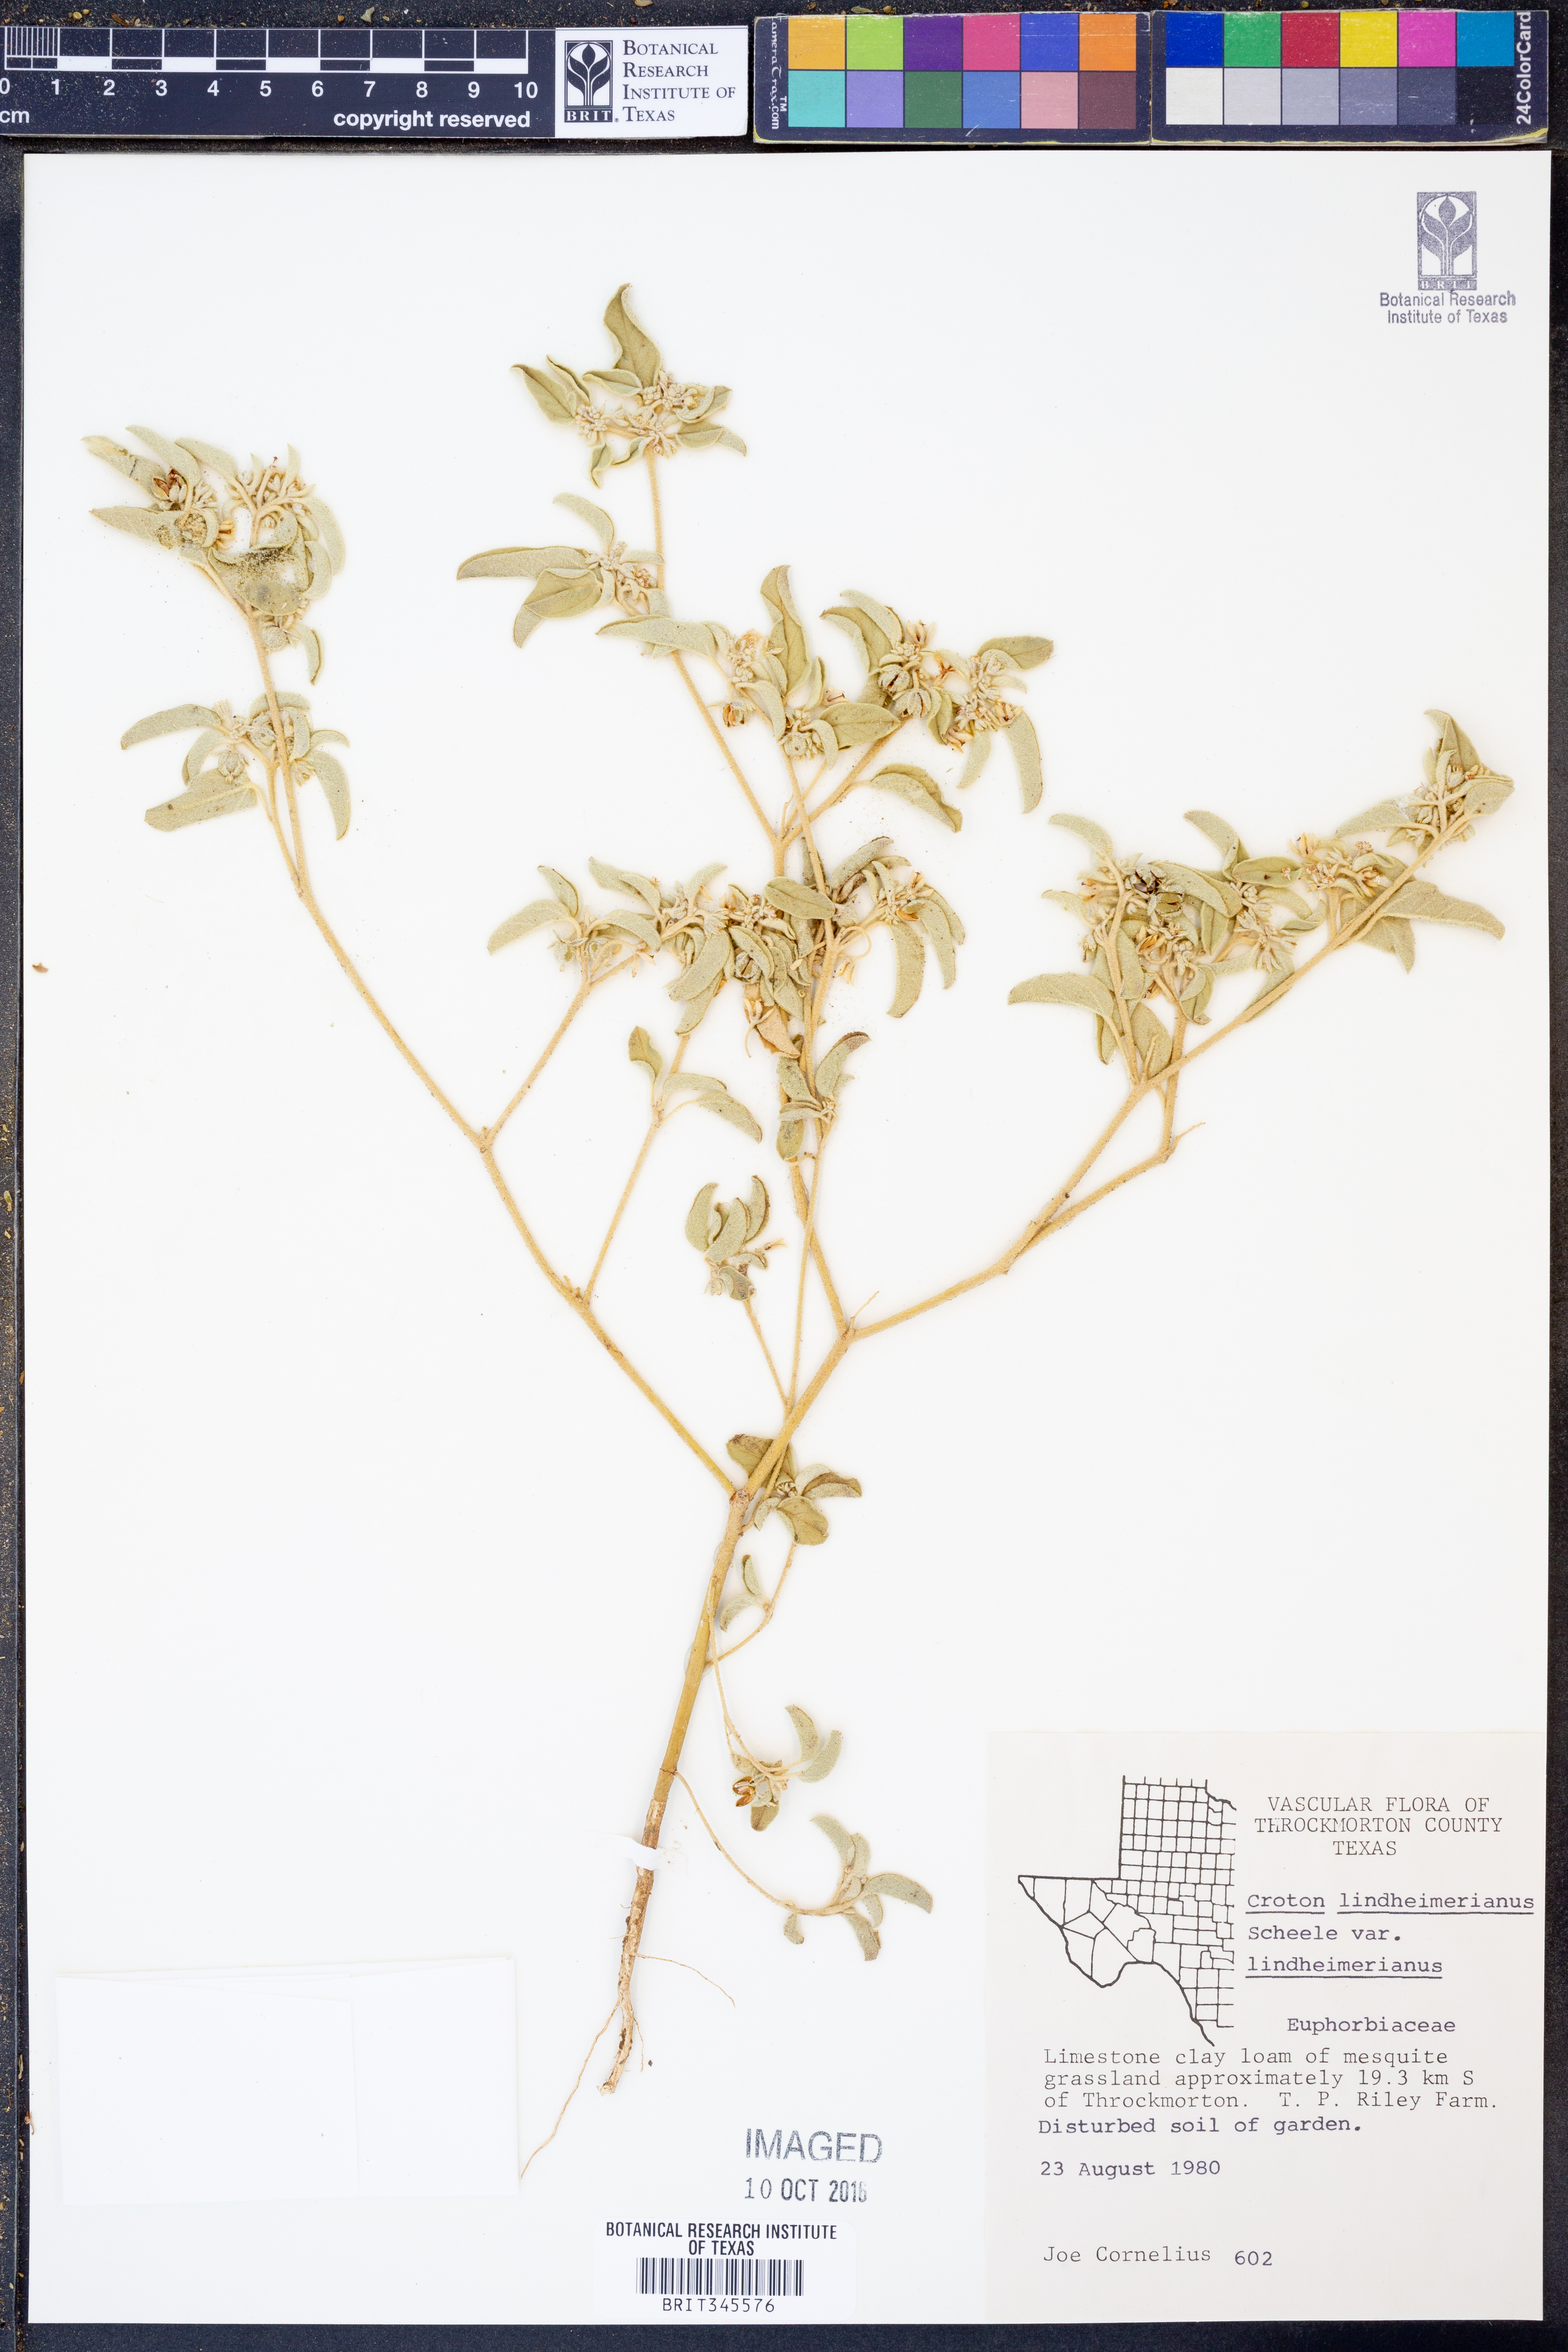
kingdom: Plantae
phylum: Tracheophyta
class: Magnoliopsida
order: Malpighiales
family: Euphorbiaceae
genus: Croton
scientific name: Croton lindheimerianus
